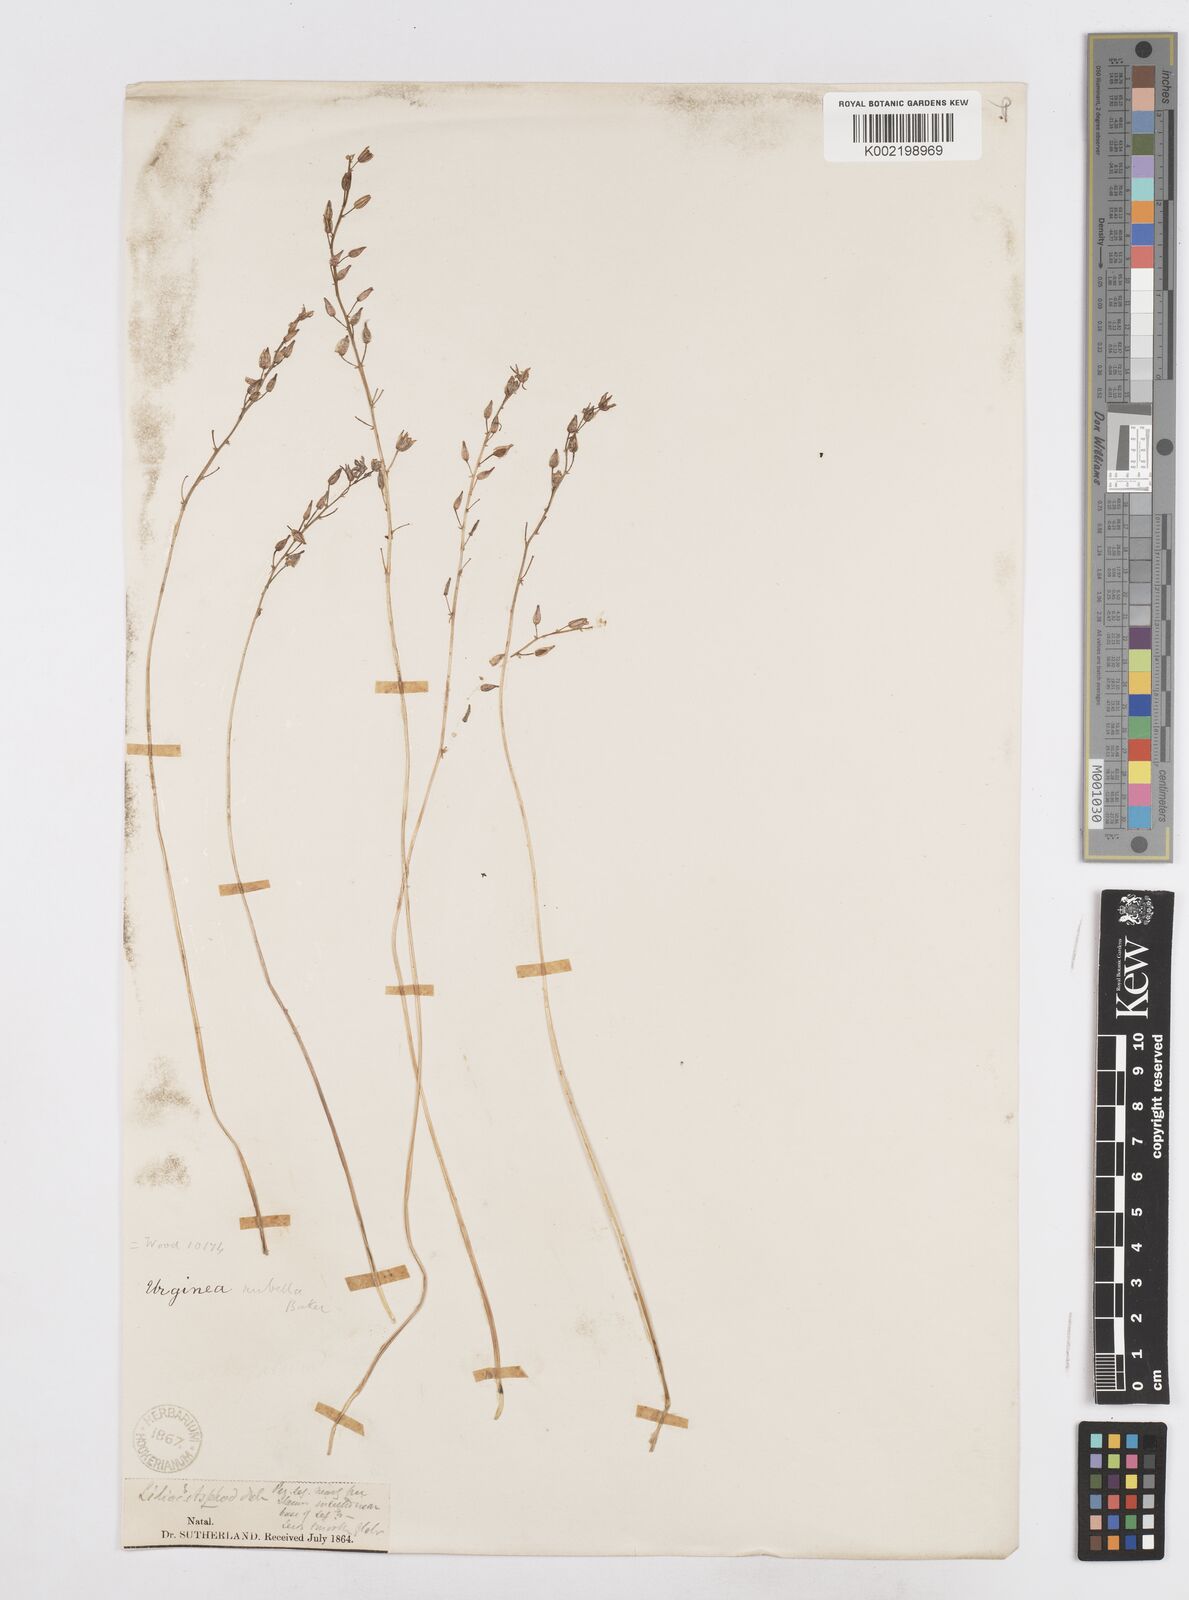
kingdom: Plantae
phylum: Tracheophyta
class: Liliopsida
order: Asparagales
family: Asparagaceae
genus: Drimia
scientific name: Drimia
